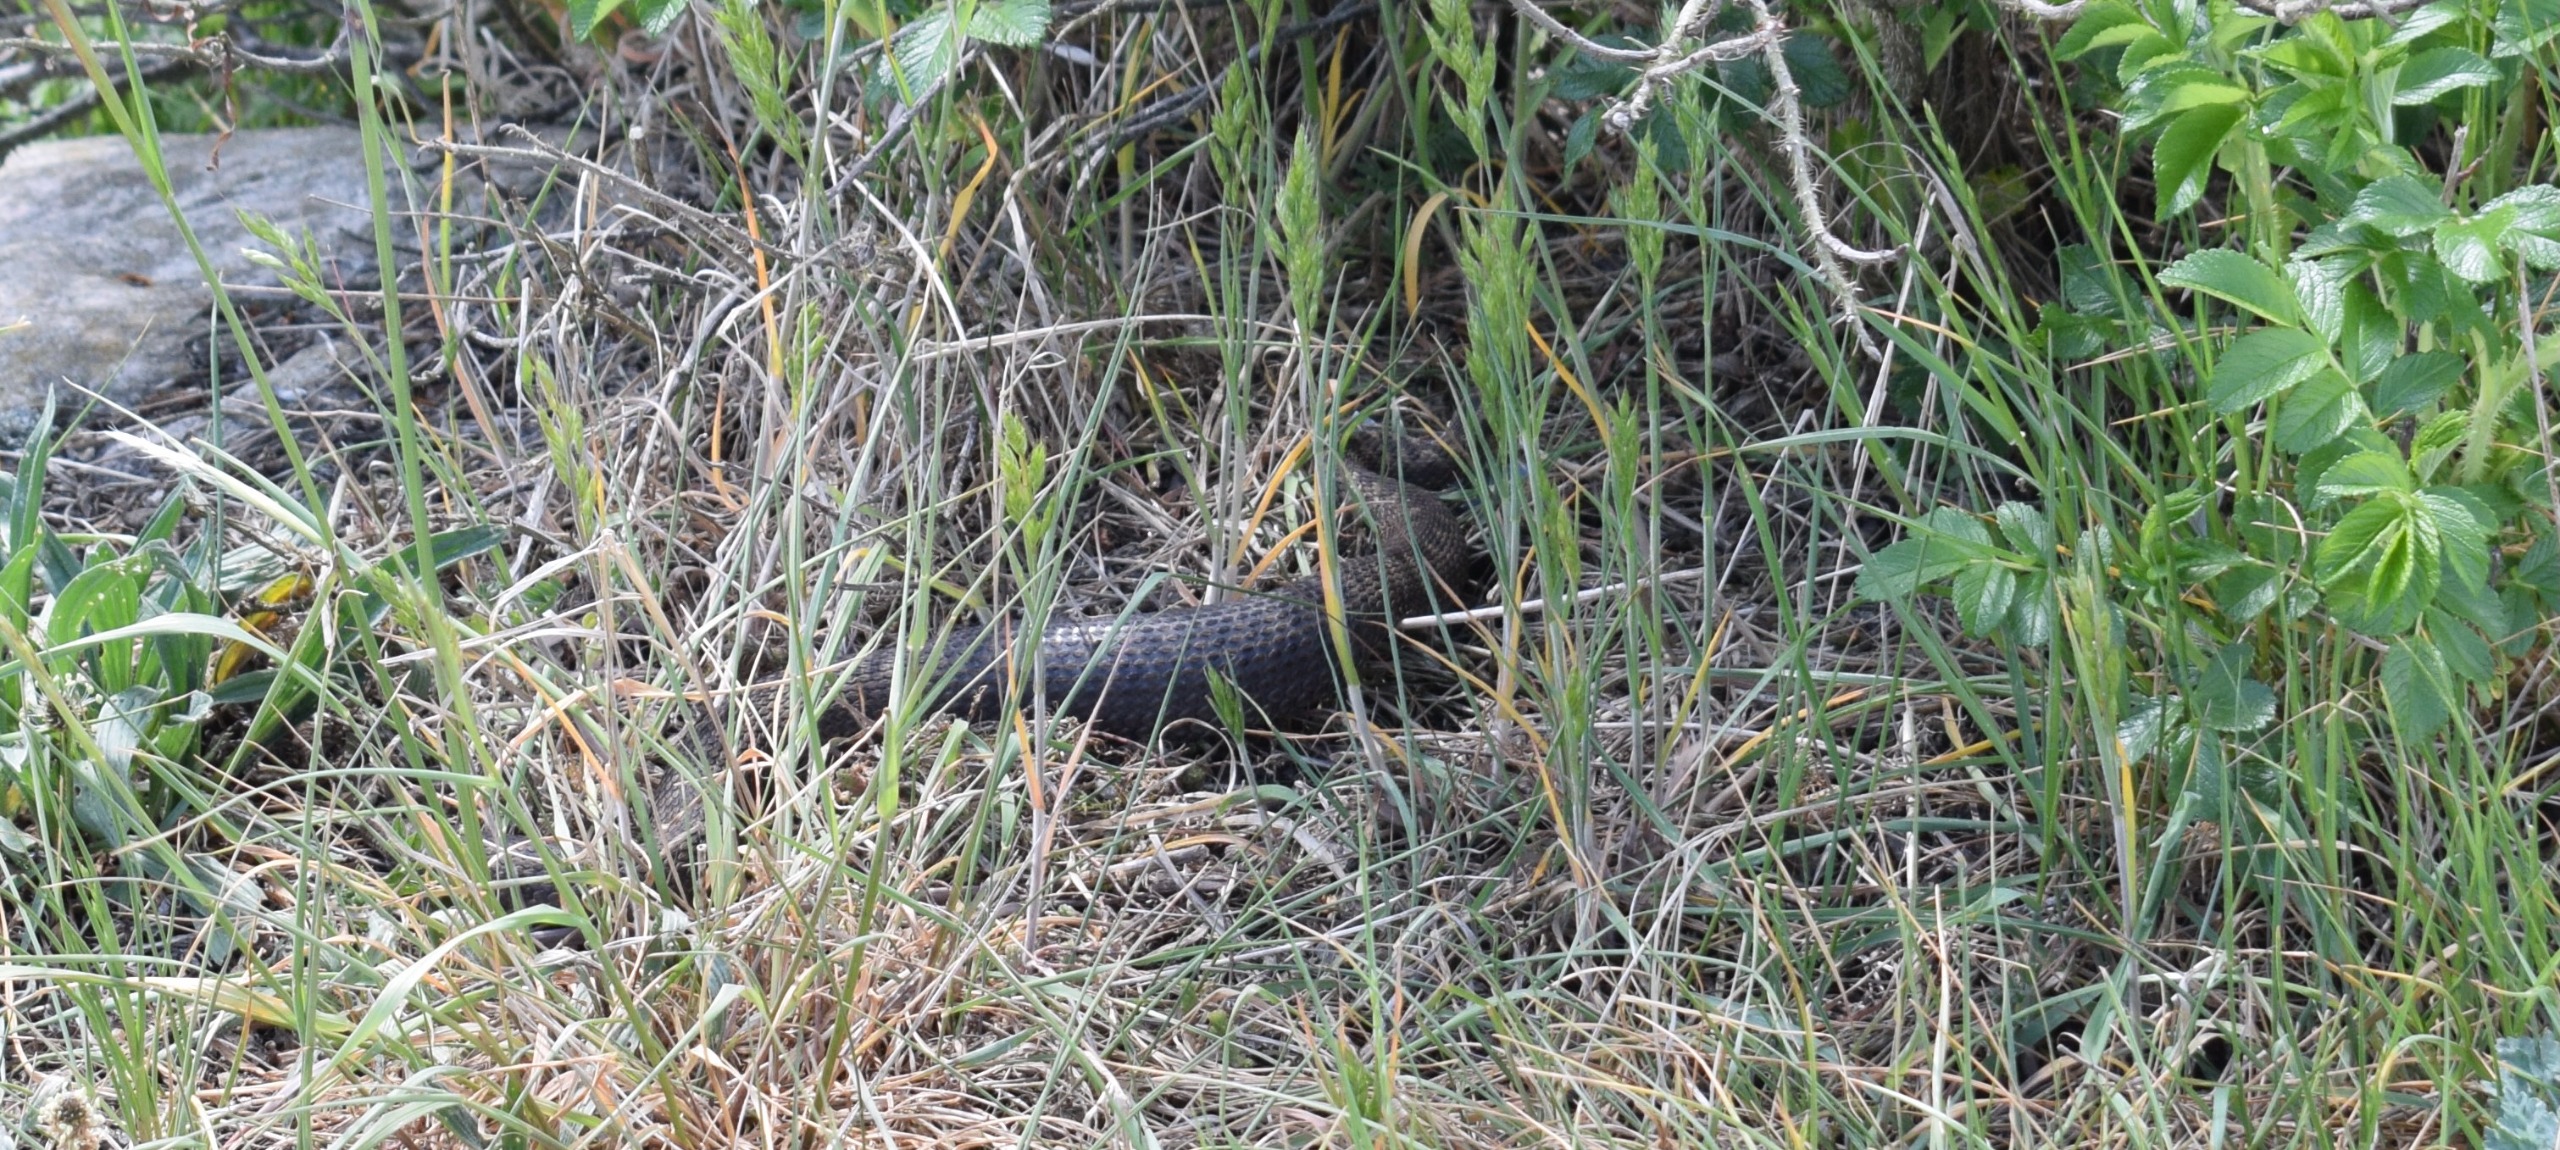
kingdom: Animalia
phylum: Chordata
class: Squamata
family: Viperidae
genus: Vipera
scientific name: Vipera berus
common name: Hugorm
